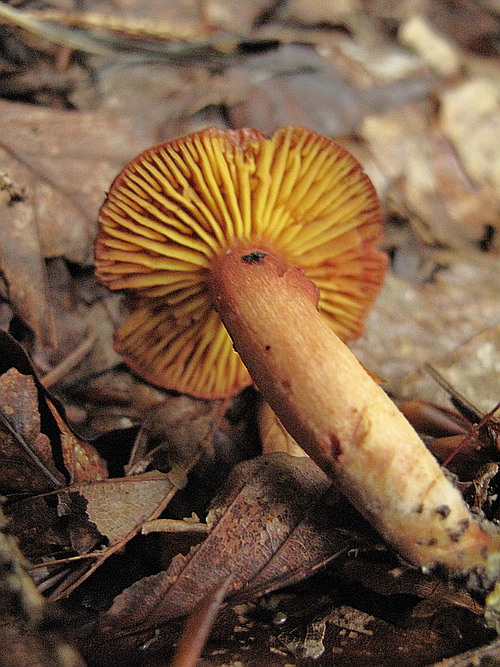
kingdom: Fungi
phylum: Basidiomycota
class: Agaricomycetes
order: Boletales
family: Boletaceae
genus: Phylloporus
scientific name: Phylloporus pelletieri
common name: lamelrørhat
